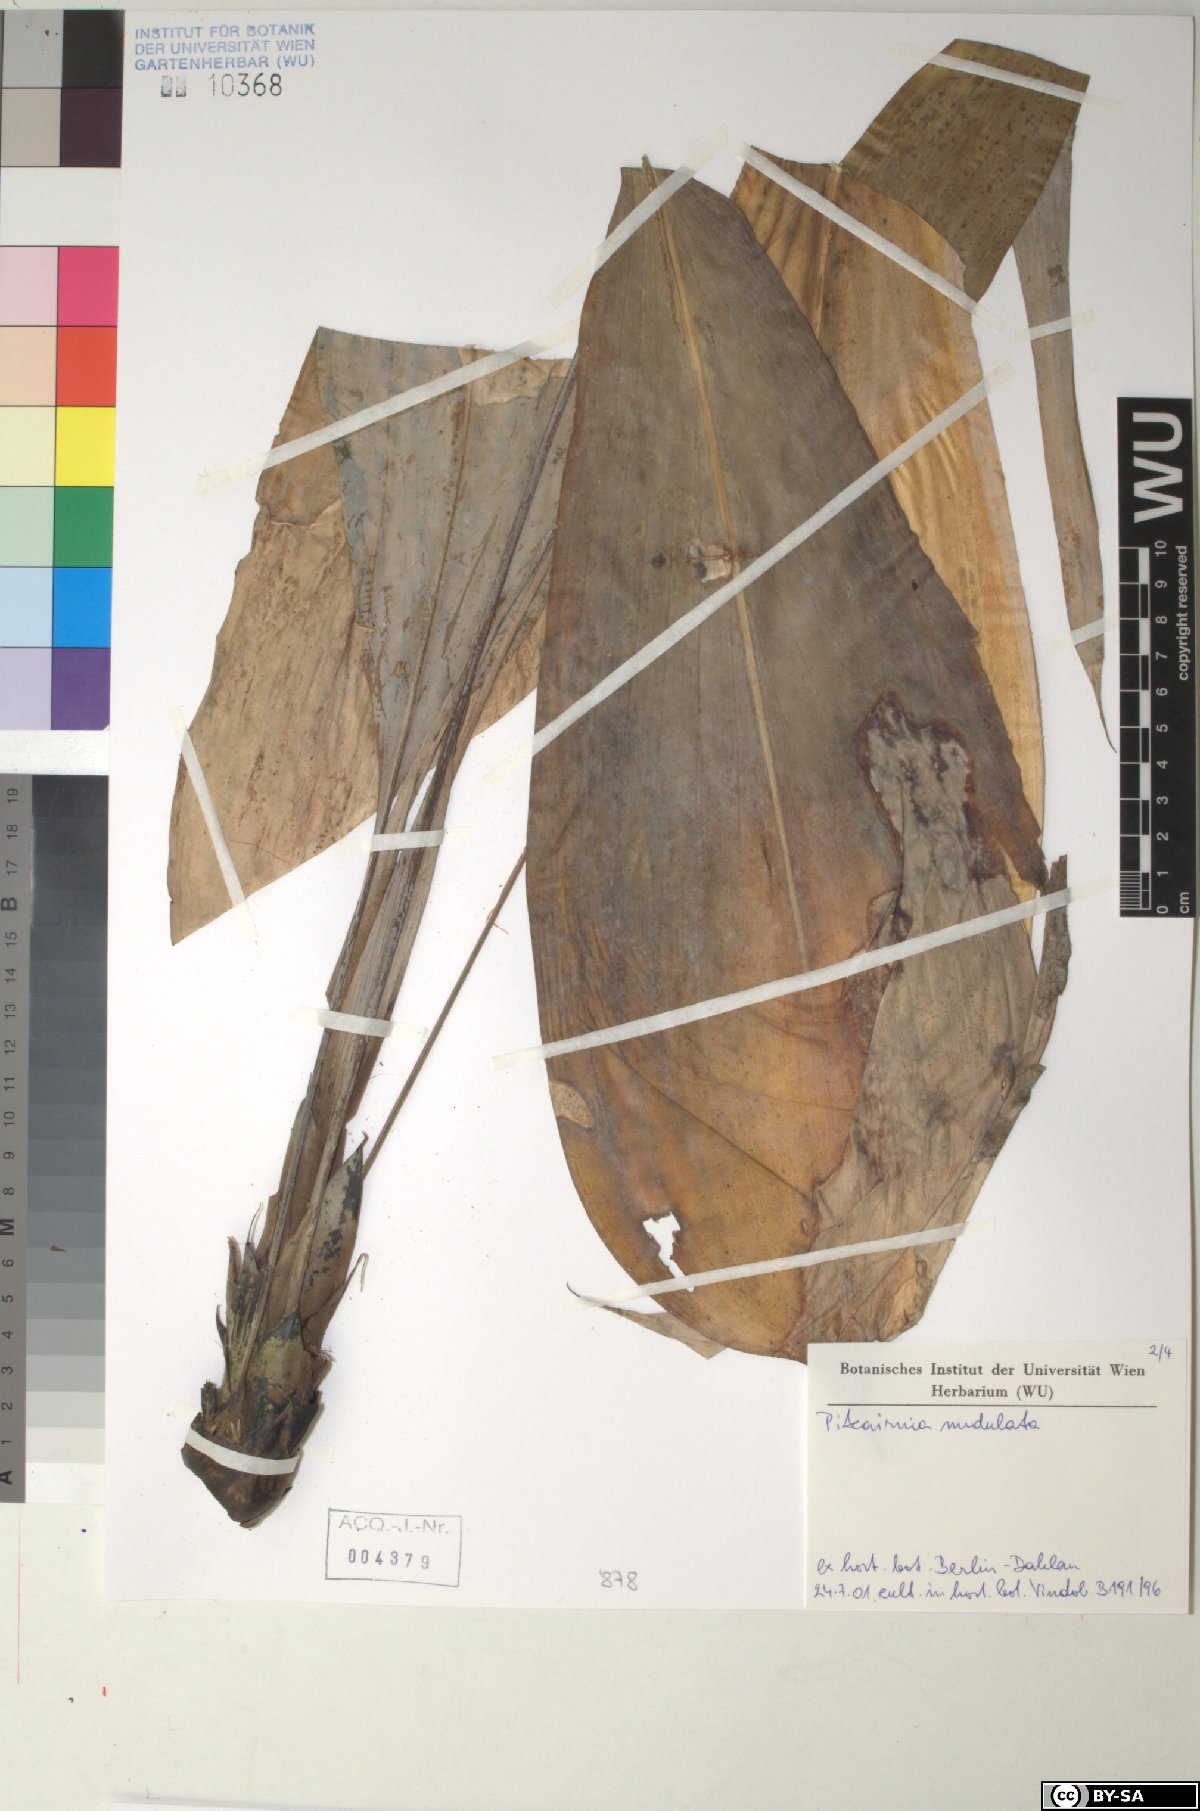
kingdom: Plantae
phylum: Tracheophyta
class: Liliopsida
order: Poales
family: Bromeliaceae
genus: Pitcairnia
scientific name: Pitcairnia
